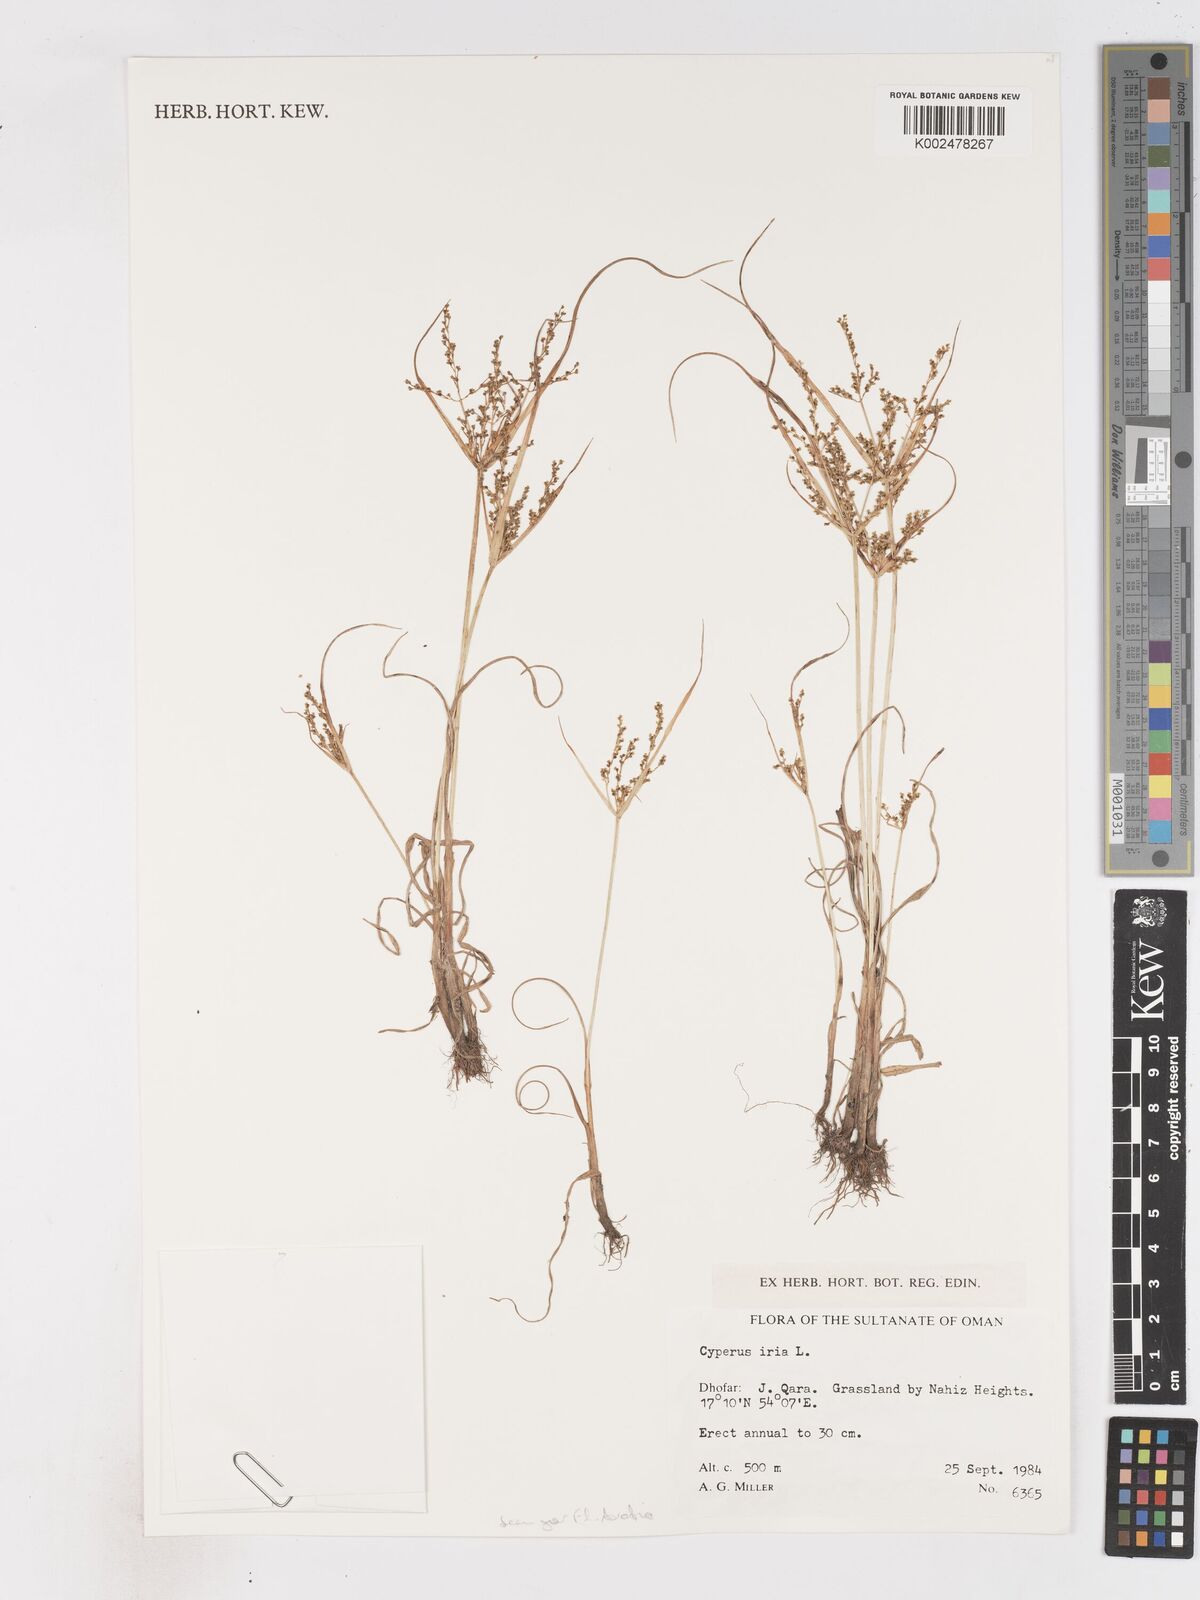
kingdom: Plantae
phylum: Tracheophyta
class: Liliopsida
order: Poales
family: Cyperaceae
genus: Cyperus
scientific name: Cyperus iria
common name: Ricefield flatsedge
